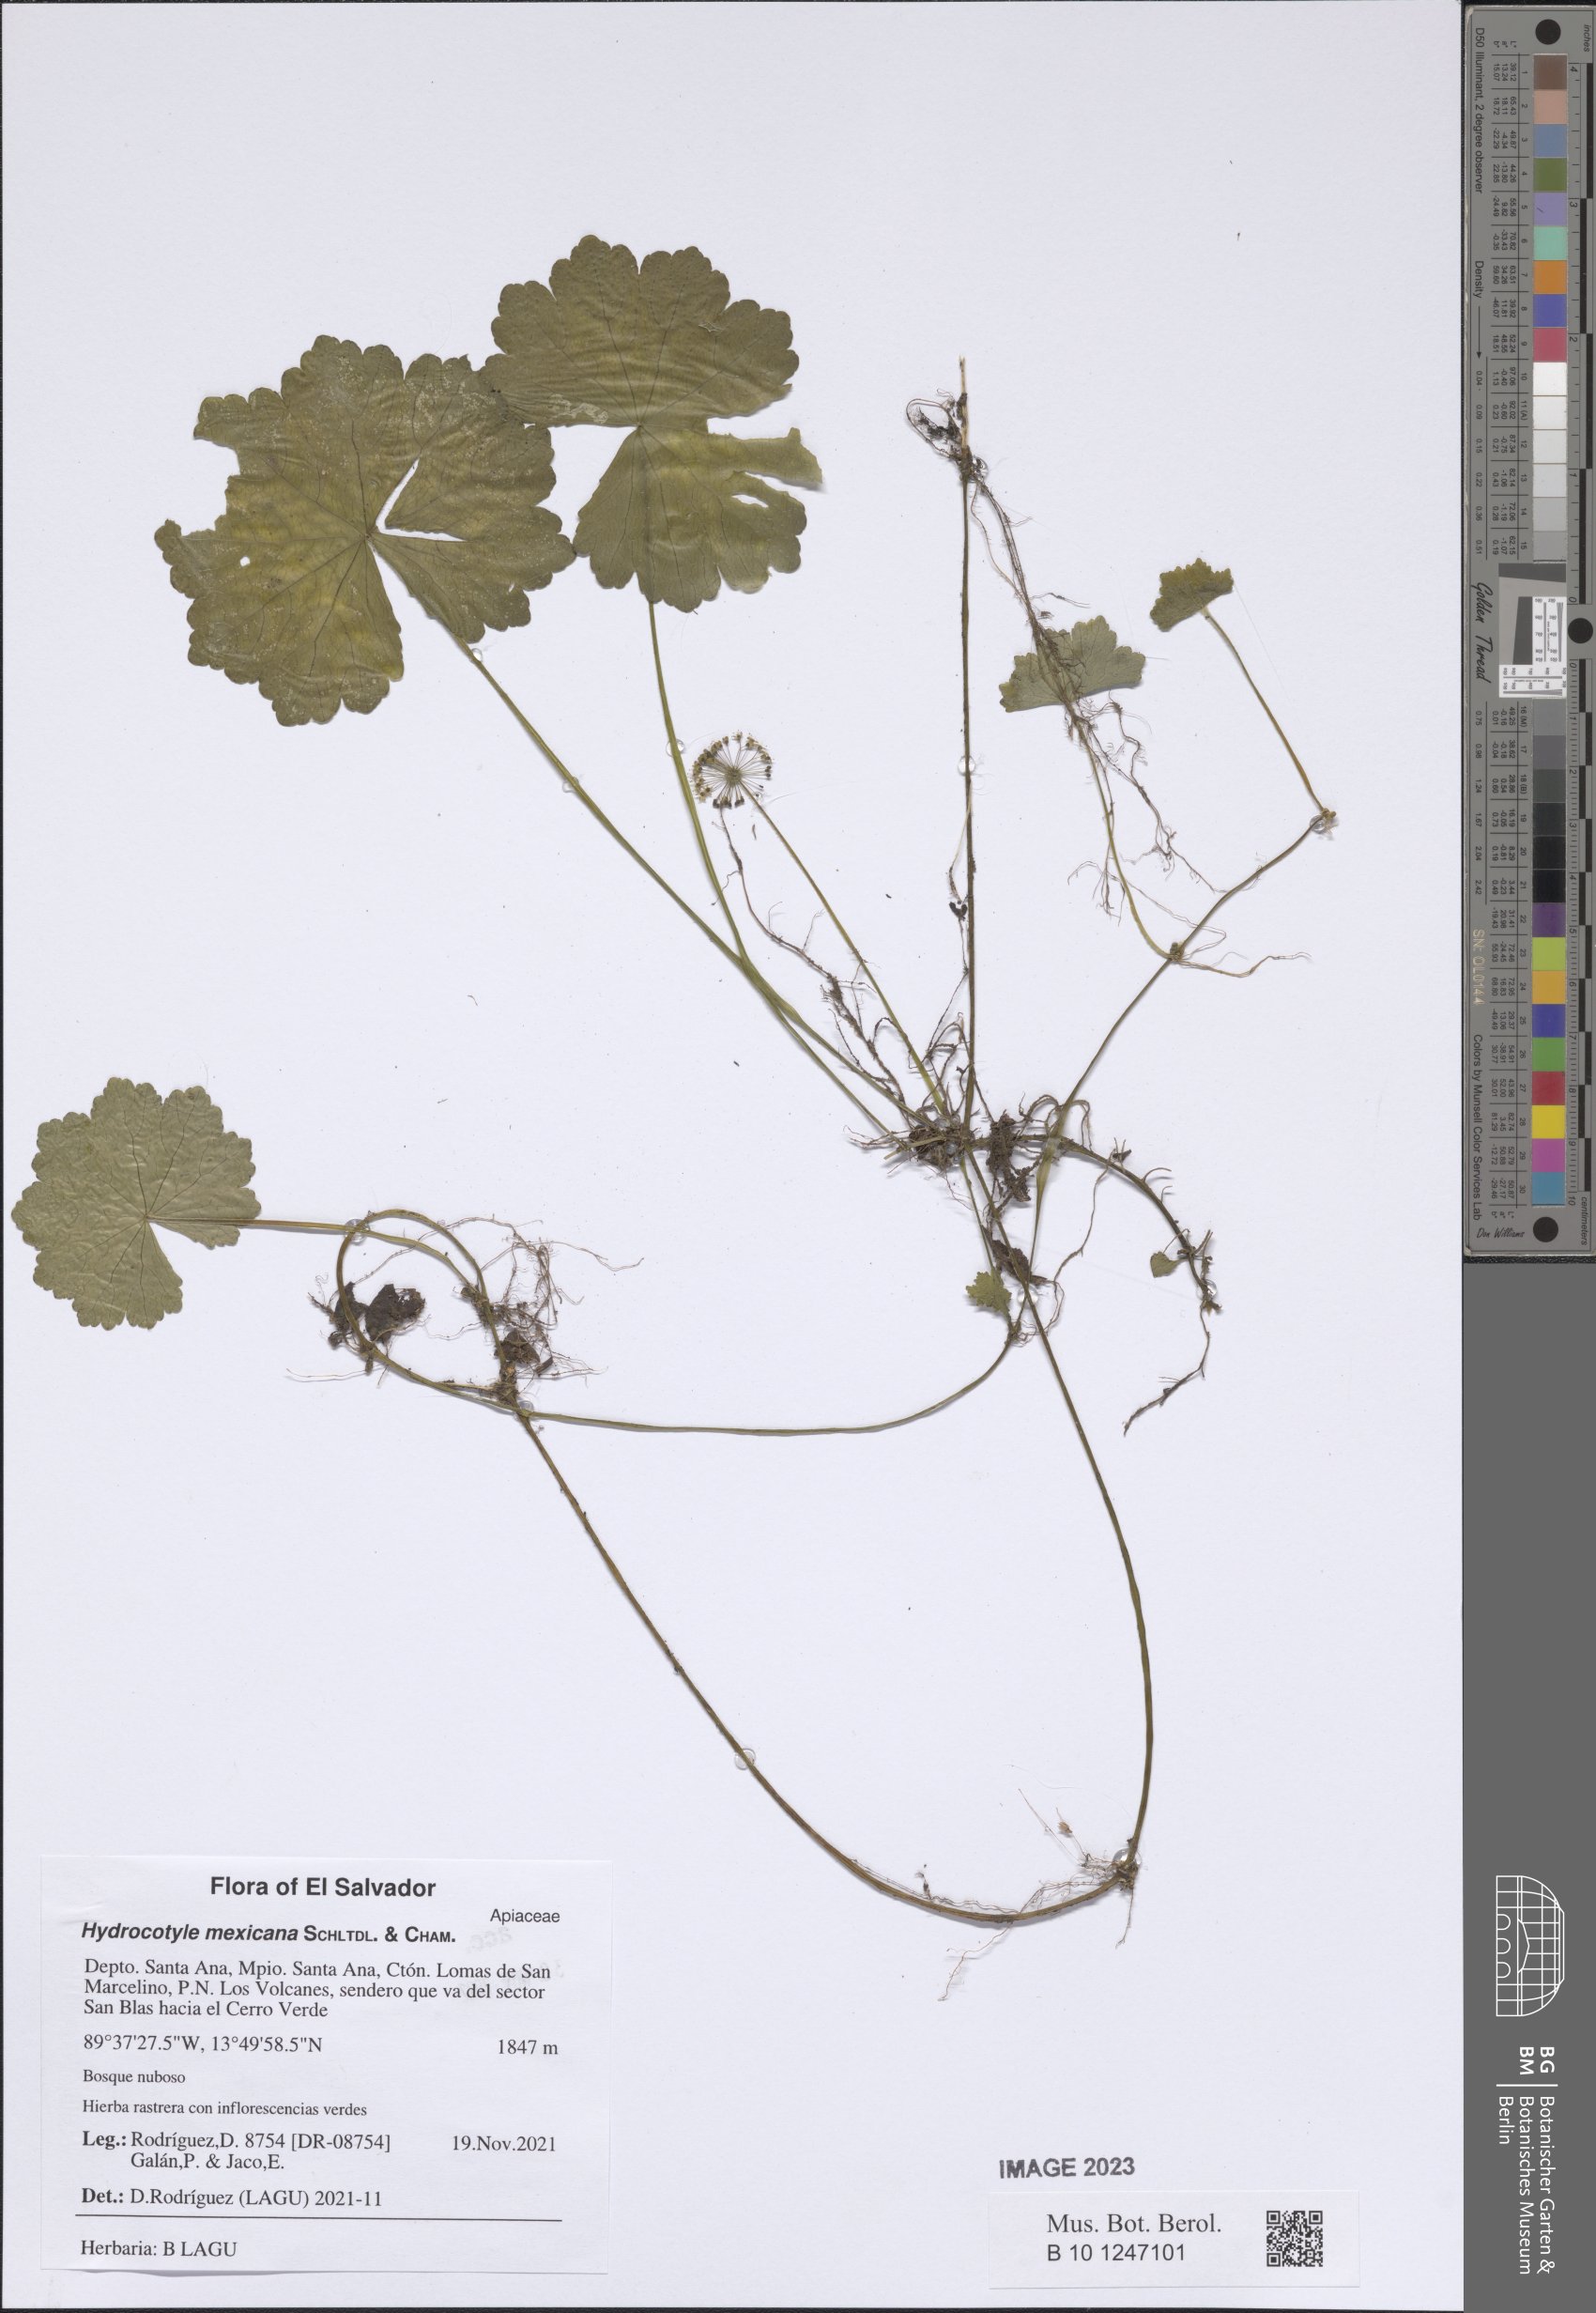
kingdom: Plantae
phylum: Tracheophyta
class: Magnoliopsida
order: Apiales
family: Araliaceae
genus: Hydrocotyle
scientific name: Hydrocotyle mexicana
